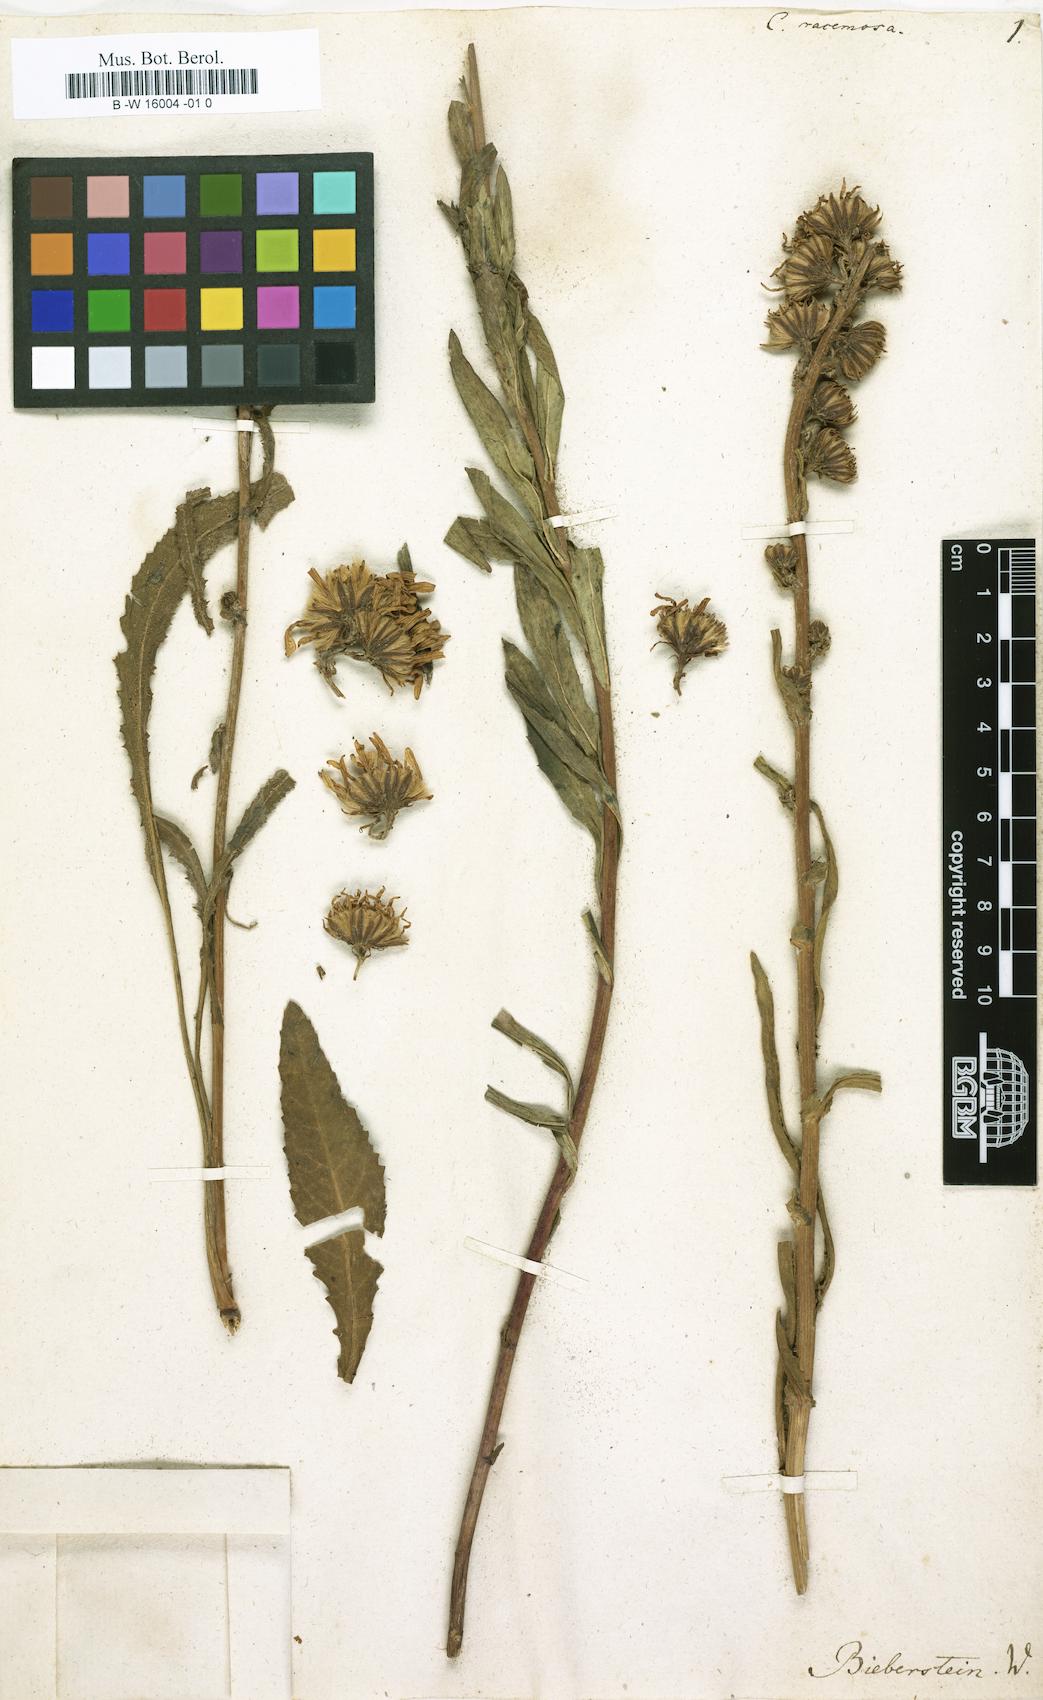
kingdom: Plantae
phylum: Tracheophyta
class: Magnoliopsida
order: Asterales
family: Asteraceae
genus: Jacobaea
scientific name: Jacobaea racemosa
